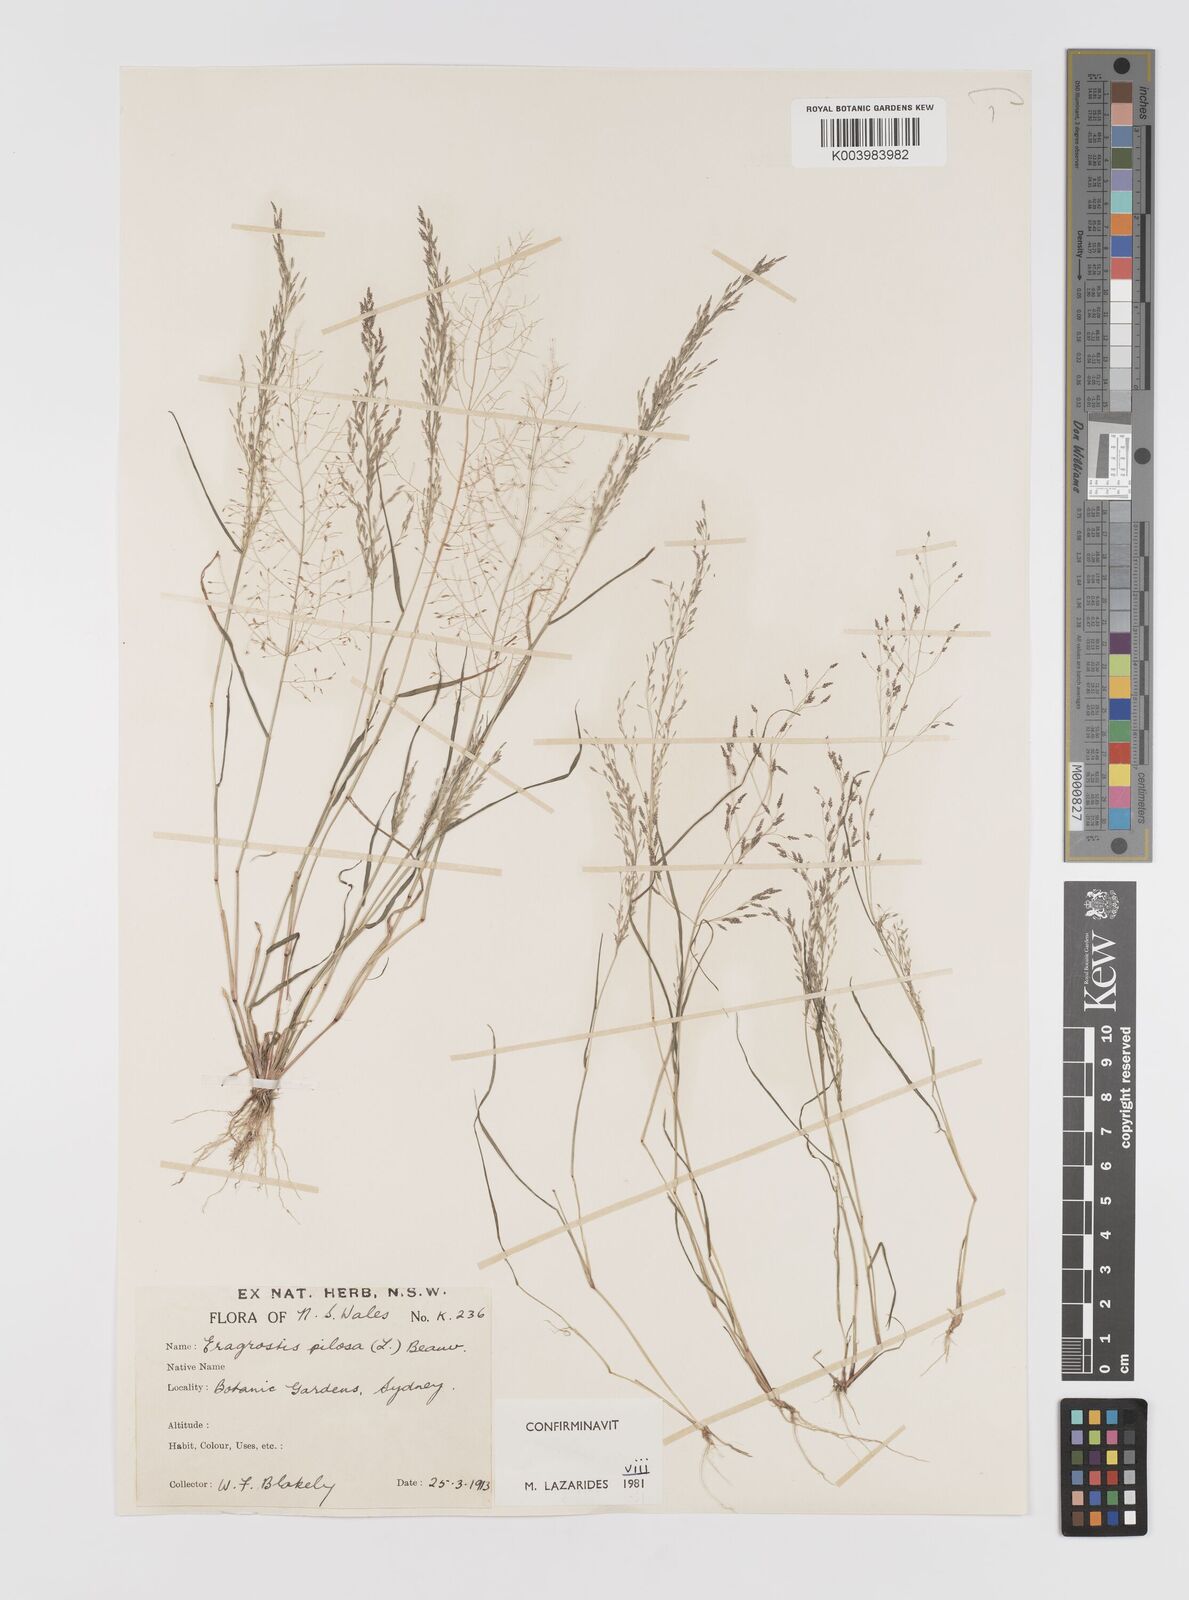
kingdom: Plantae
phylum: Tracheophyta
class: Liliopsida
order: Poales
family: Poaceae
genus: Eragrostis
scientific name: Eragrostis pilosa
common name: Indian lovegrass
